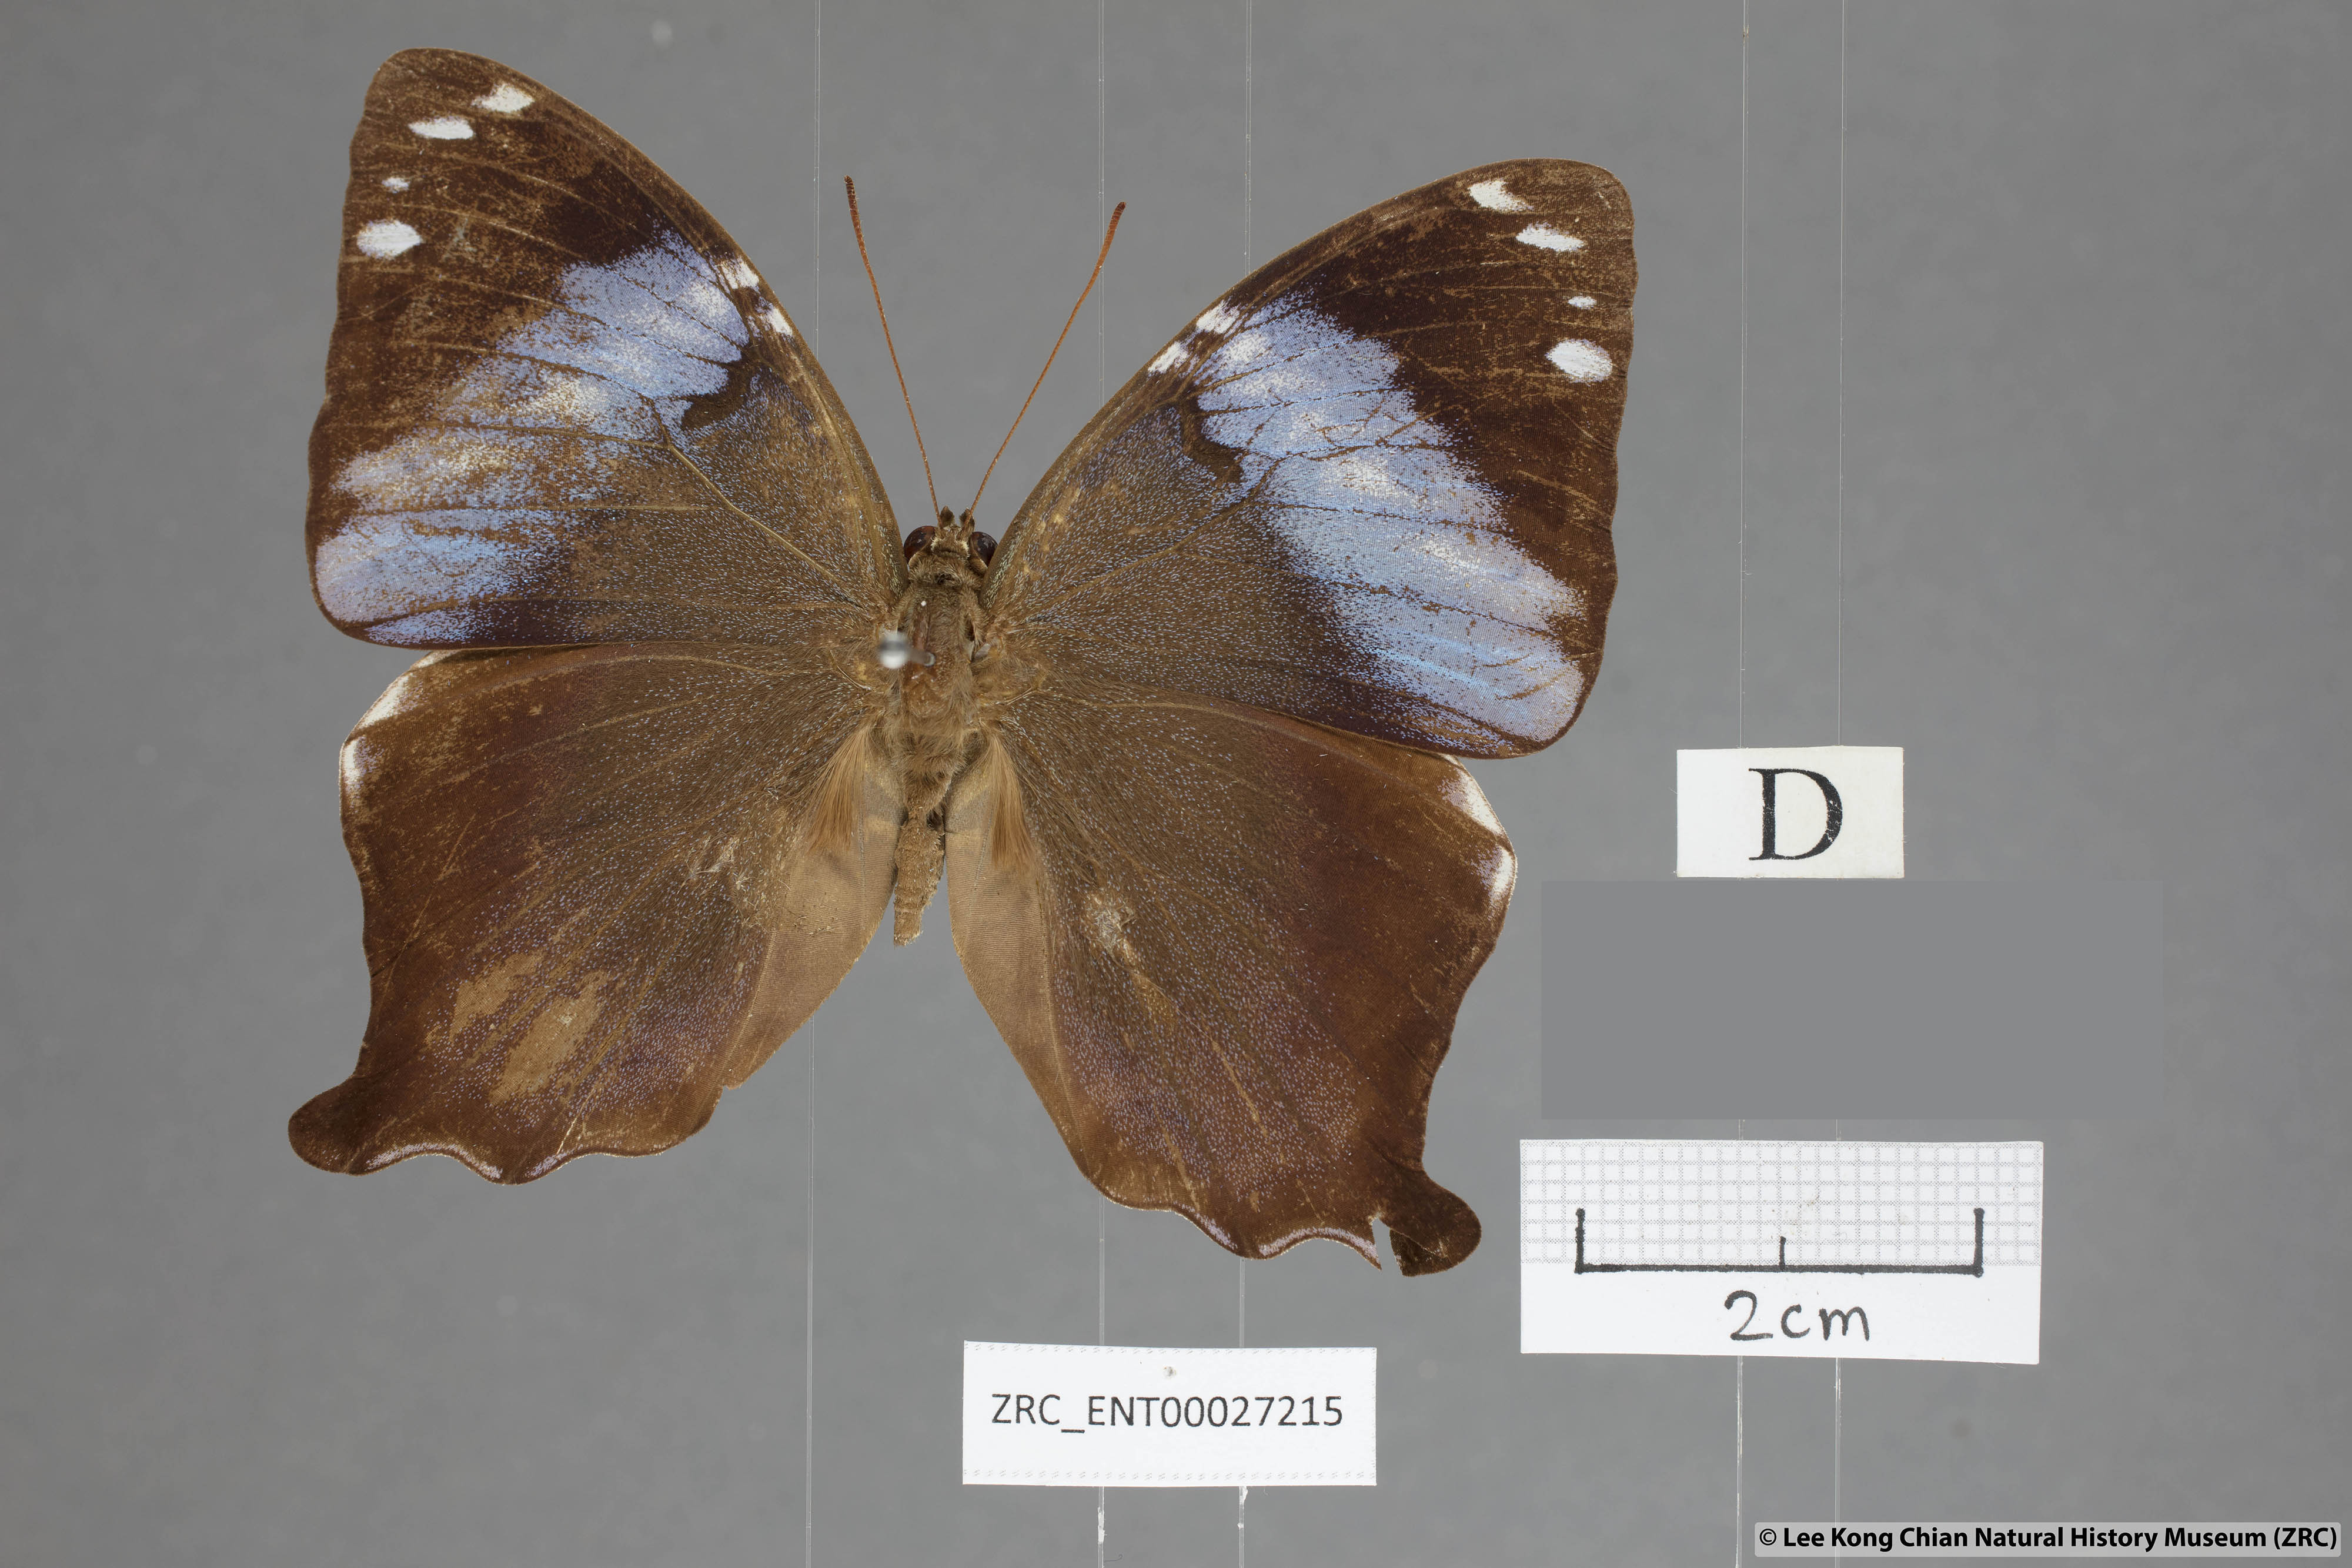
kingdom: Animalia
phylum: Arthropoda
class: Insecta
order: Lepidoptera
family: Nymphalidae
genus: Prothoe
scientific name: Prothoe
